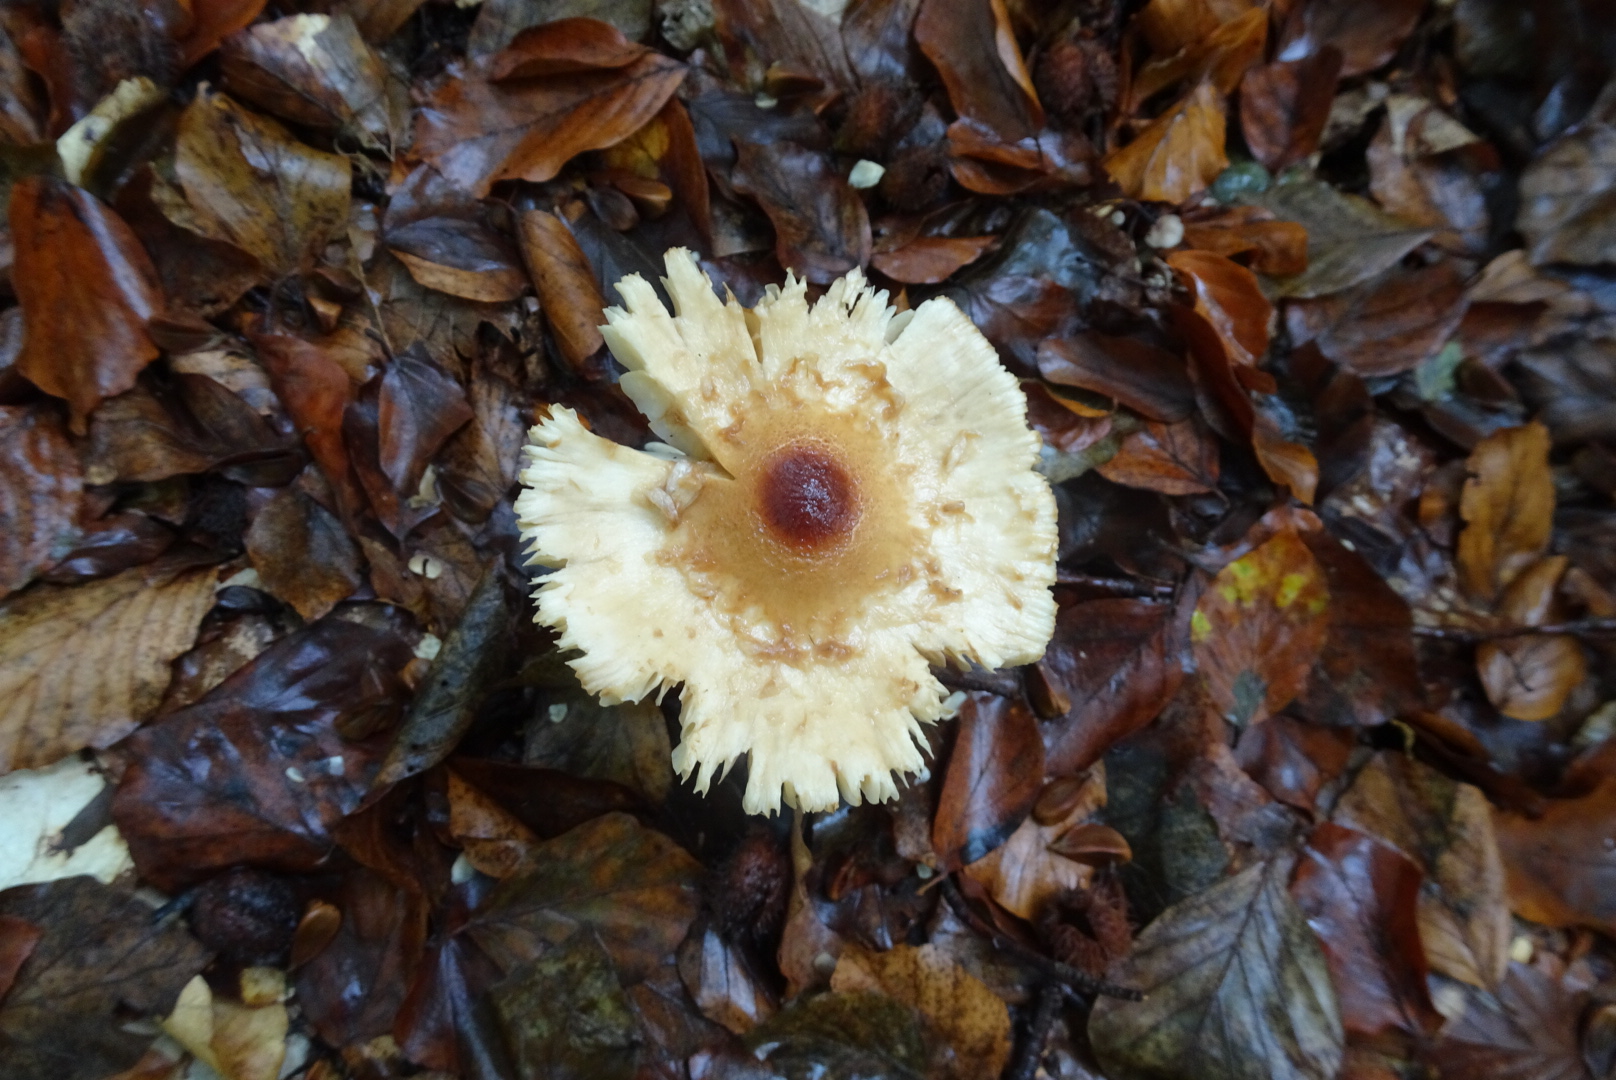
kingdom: Fungi
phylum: Basidiomycota
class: Agaricomycetes
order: Agaricales
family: Agaricaceae
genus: Lepiota
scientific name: Lepiota magnispora
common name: gulfnugget parasolhat
